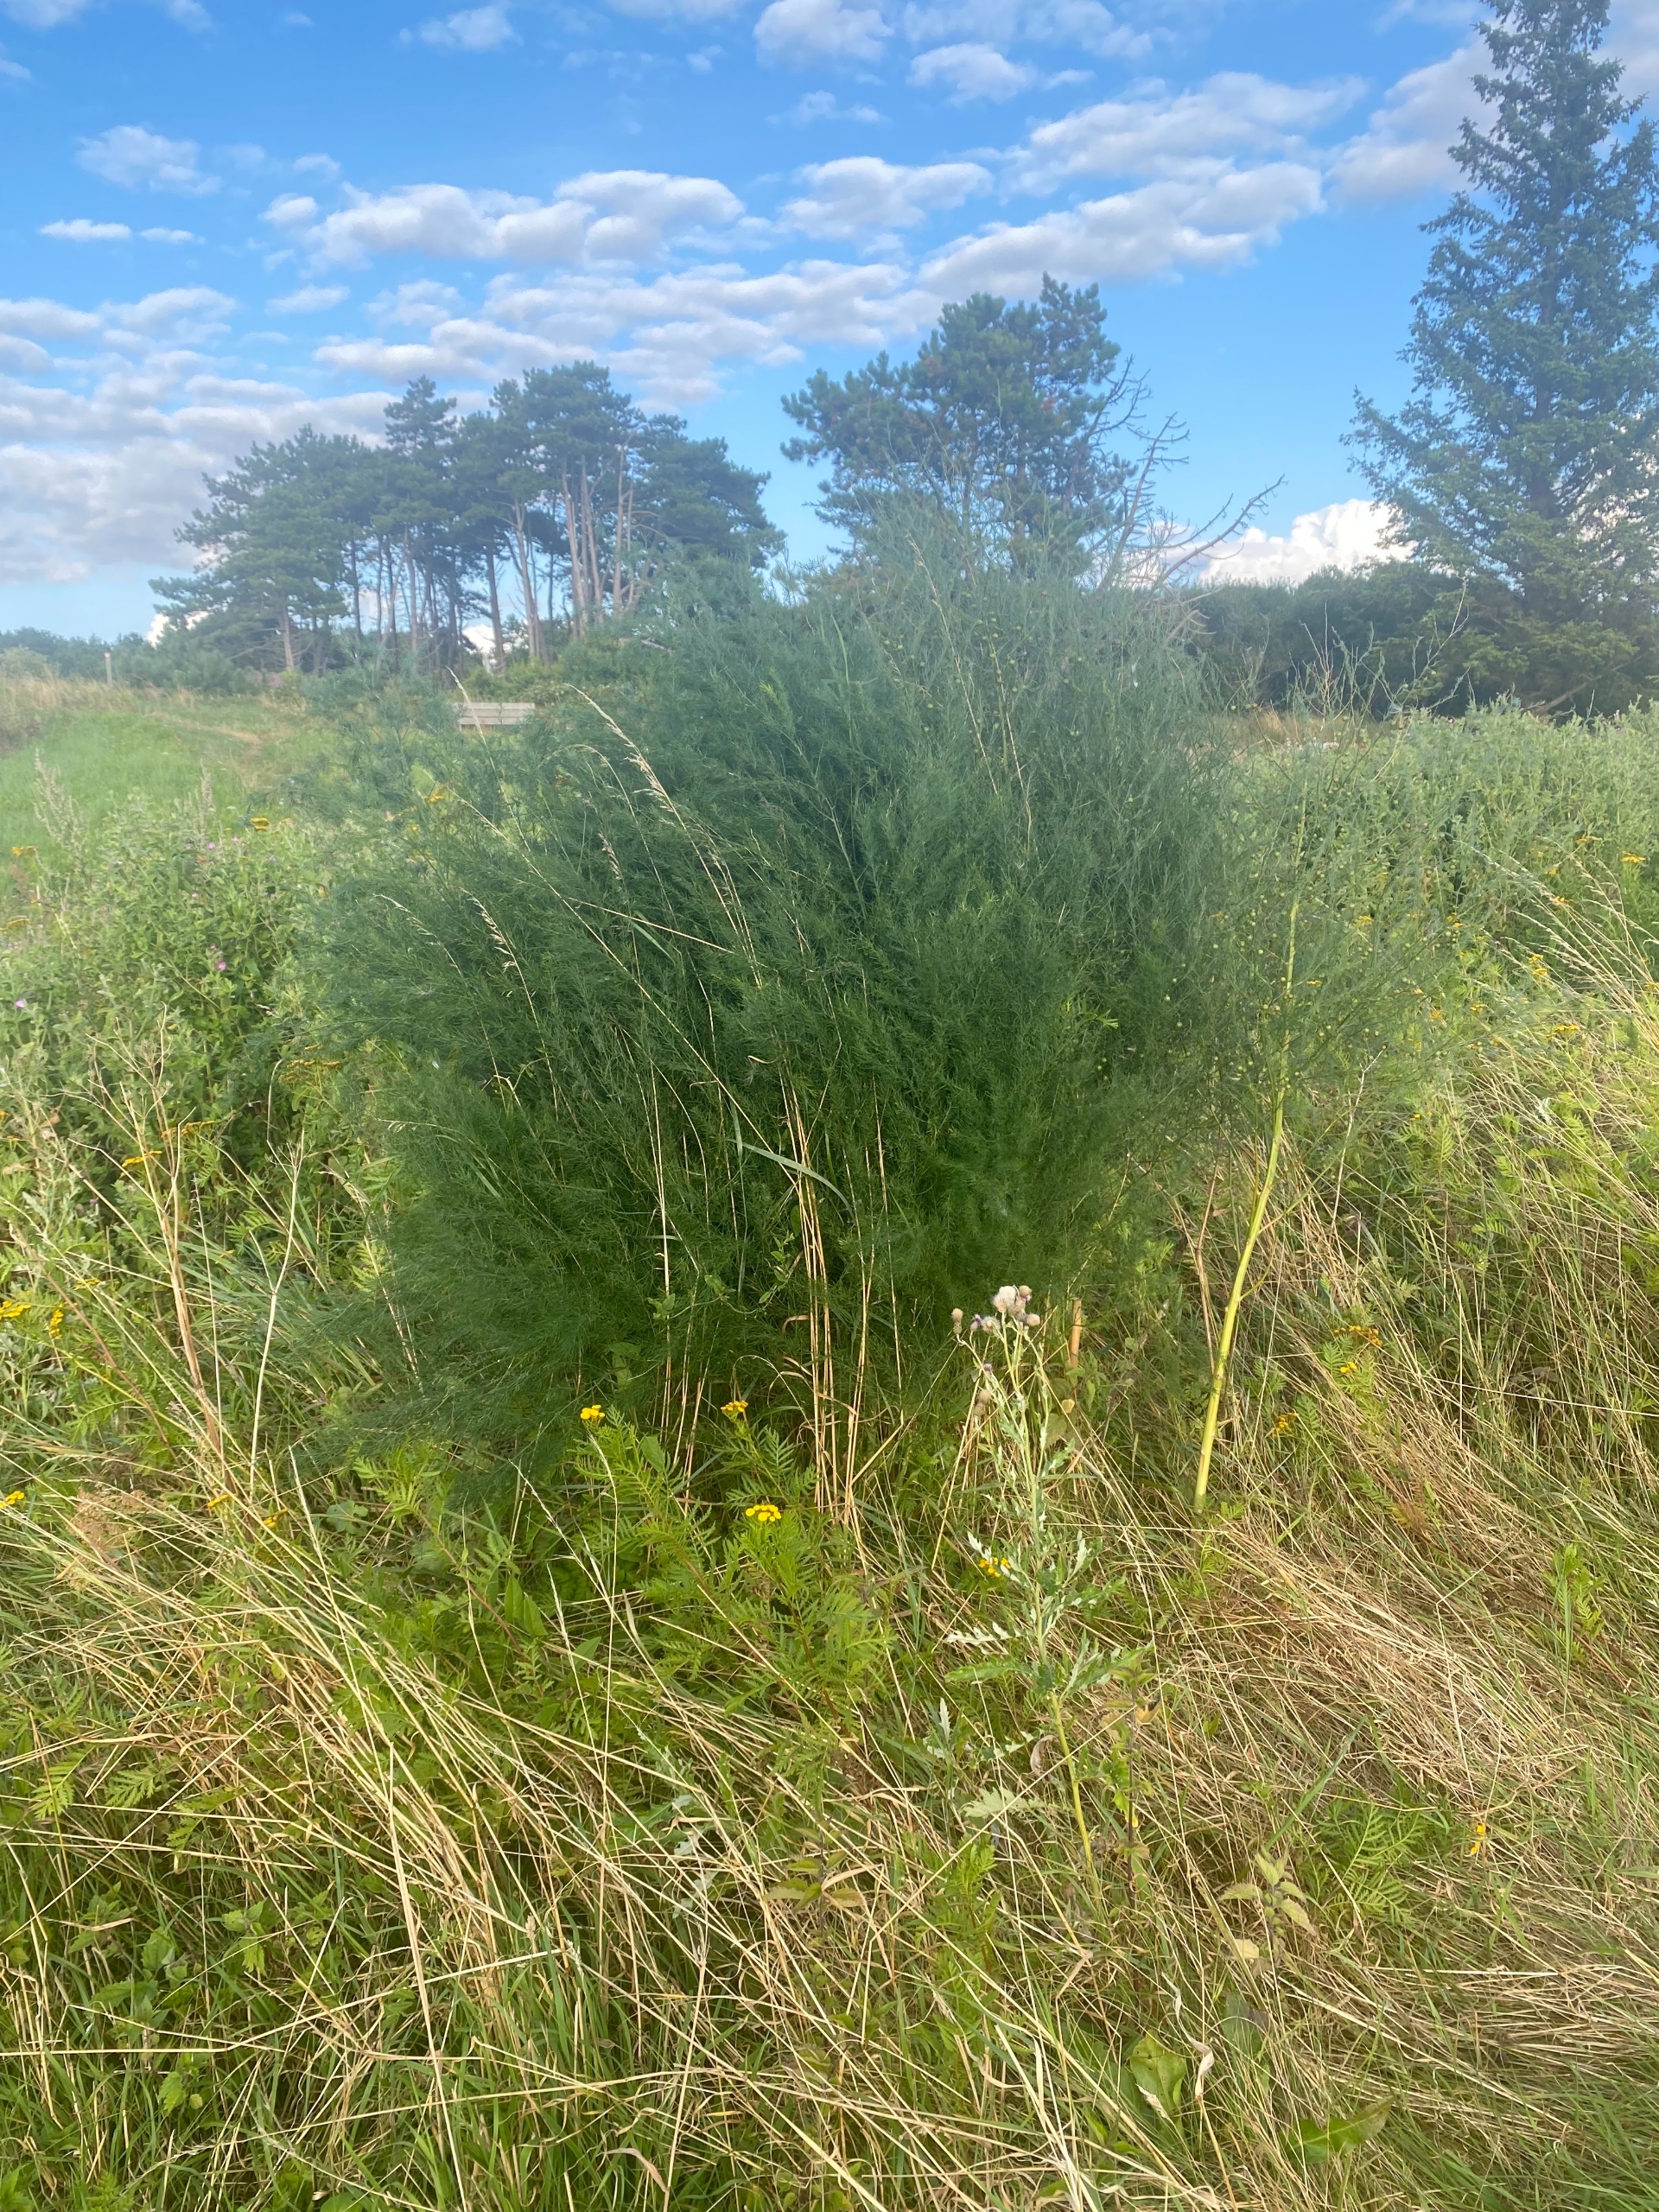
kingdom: Plantae
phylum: Tracheophyta
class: Liliopsida
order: Asparagales
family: Asparagaceae
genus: Asparagus
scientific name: Asparagus officinalis
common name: Asparges
